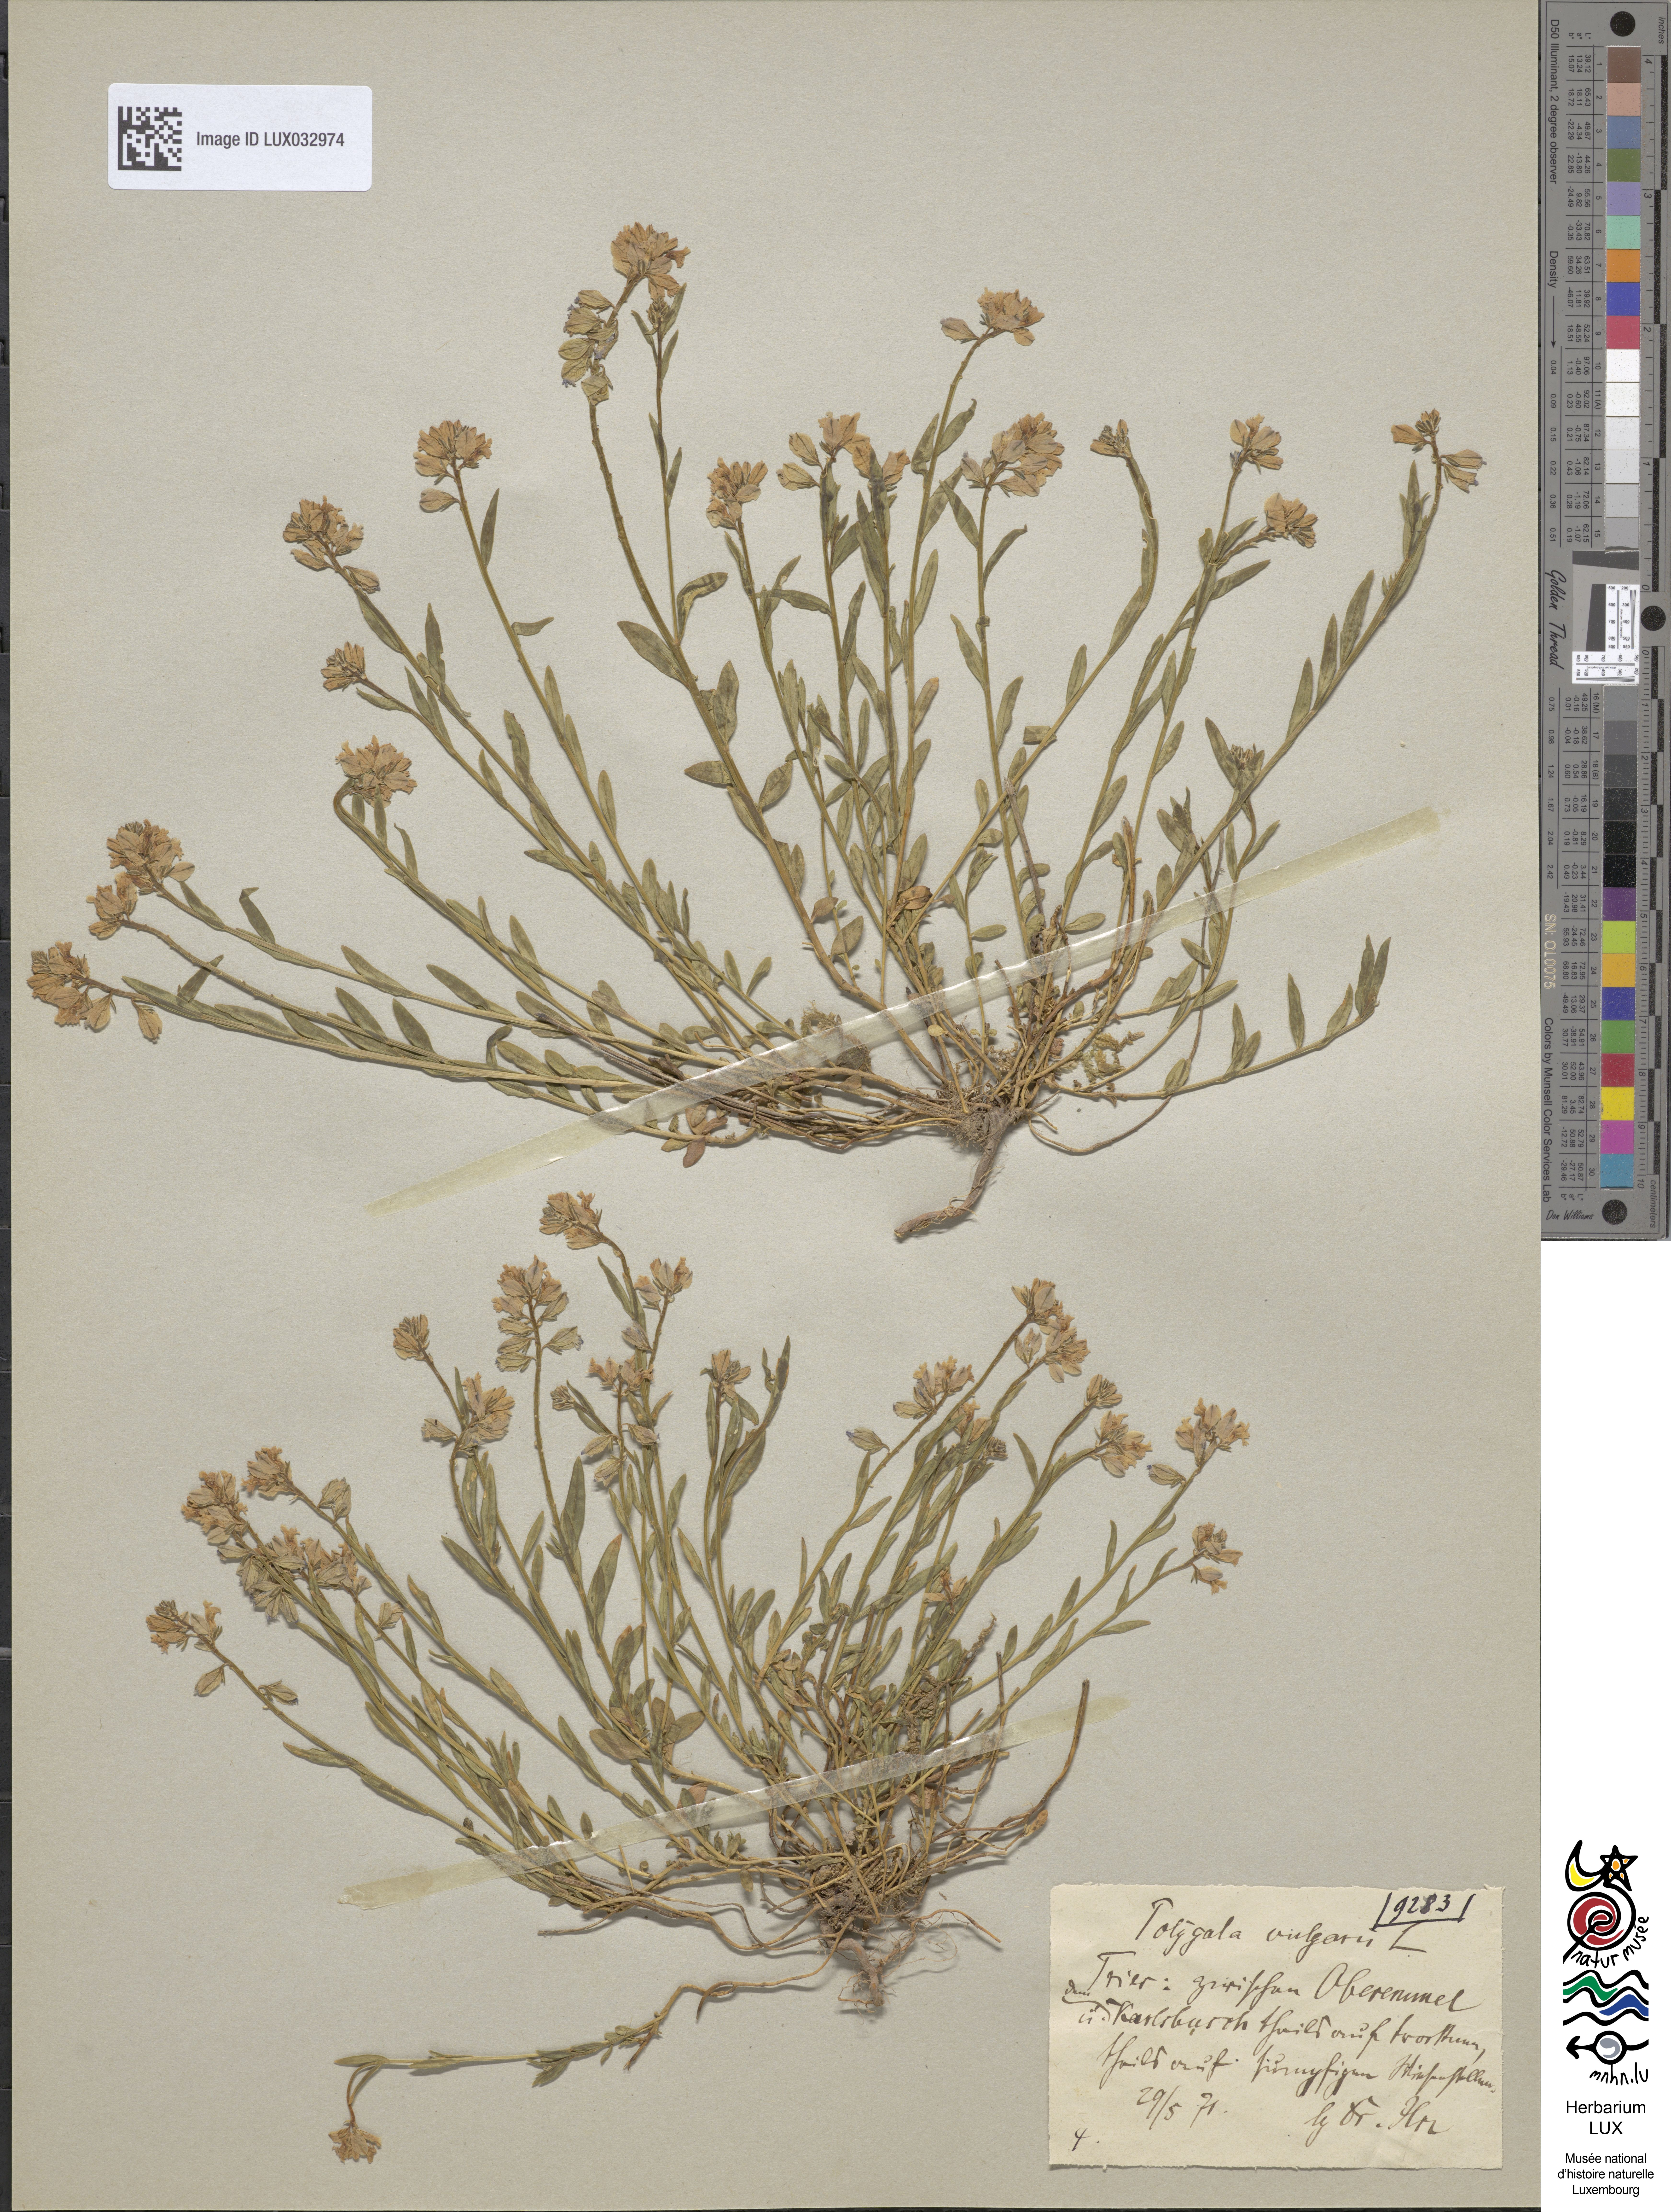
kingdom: Plantae
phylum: Tracheophyta
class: Magnoliopsida
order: Fabales
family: Polygalaceae
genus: Polygala
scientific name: Polygala vulgaris
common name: Common milkwort
